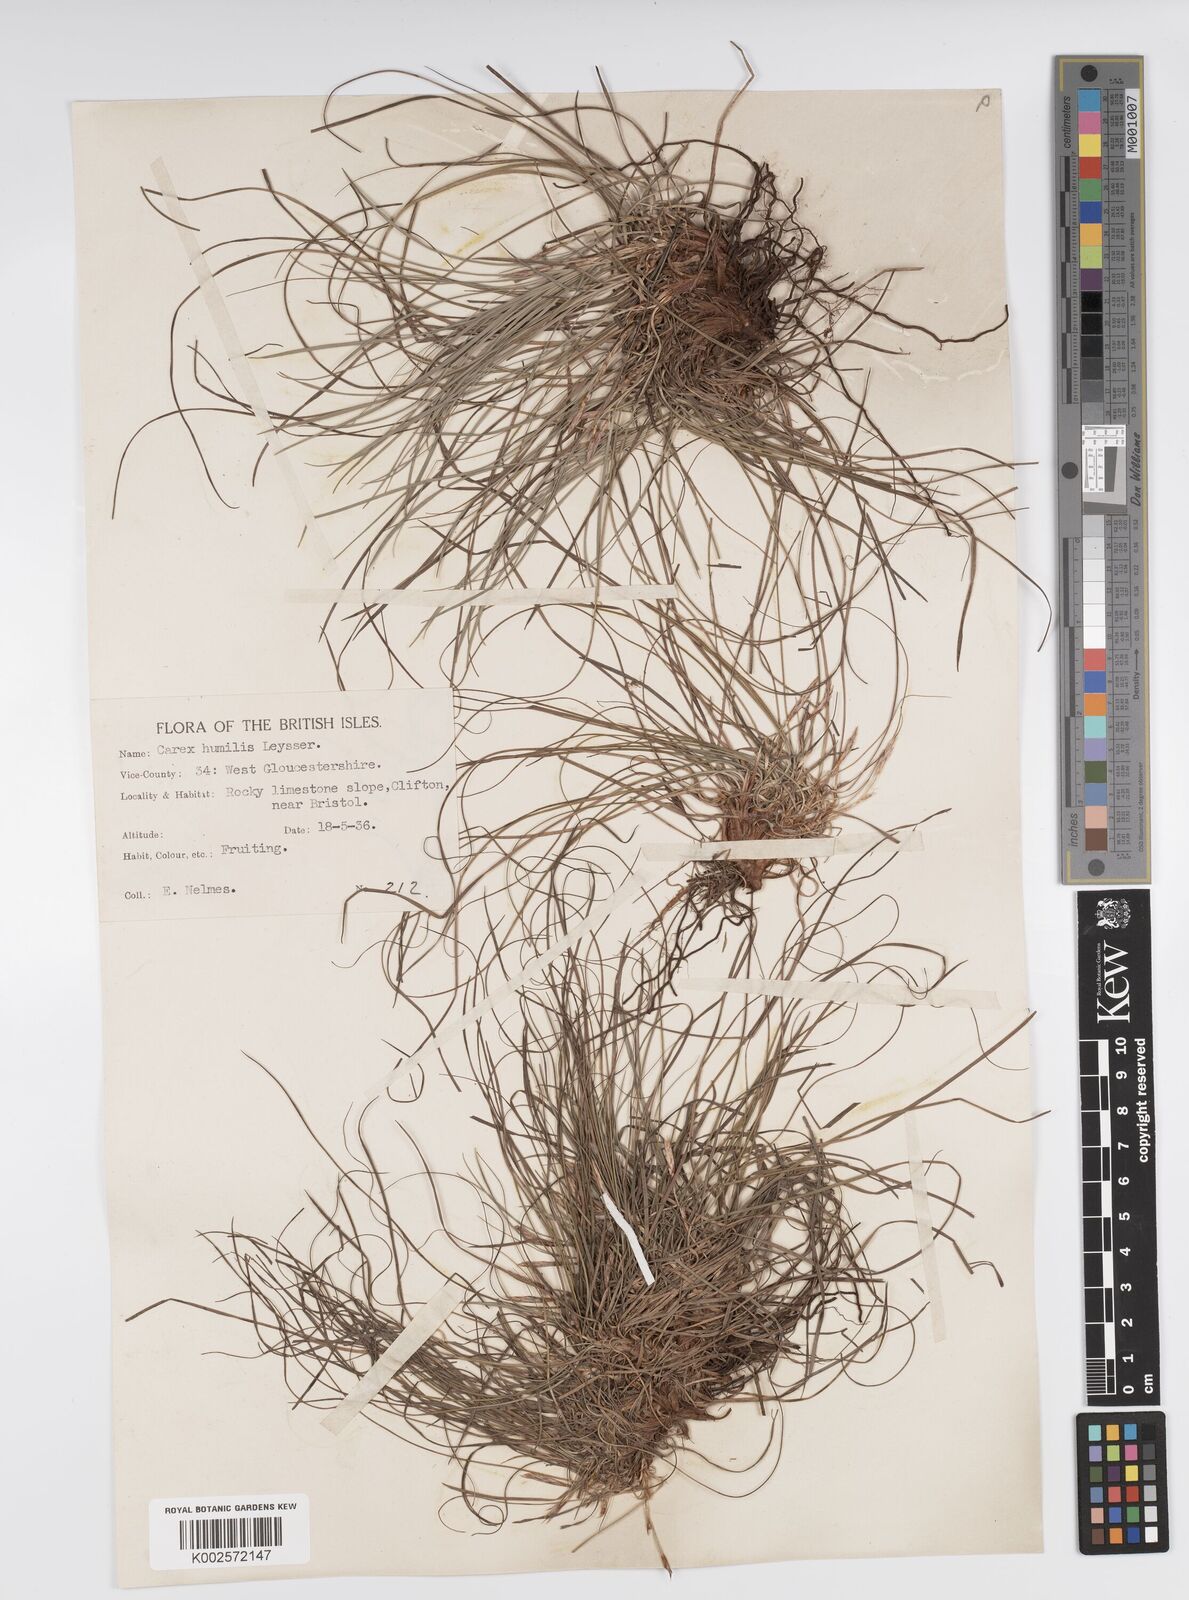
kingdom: Plantae
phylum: Tracheophyta
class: Liliopsida
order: Poales
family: Cyperaceae
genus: Carex
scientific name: Carex humilis
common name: Dwarf sedge
